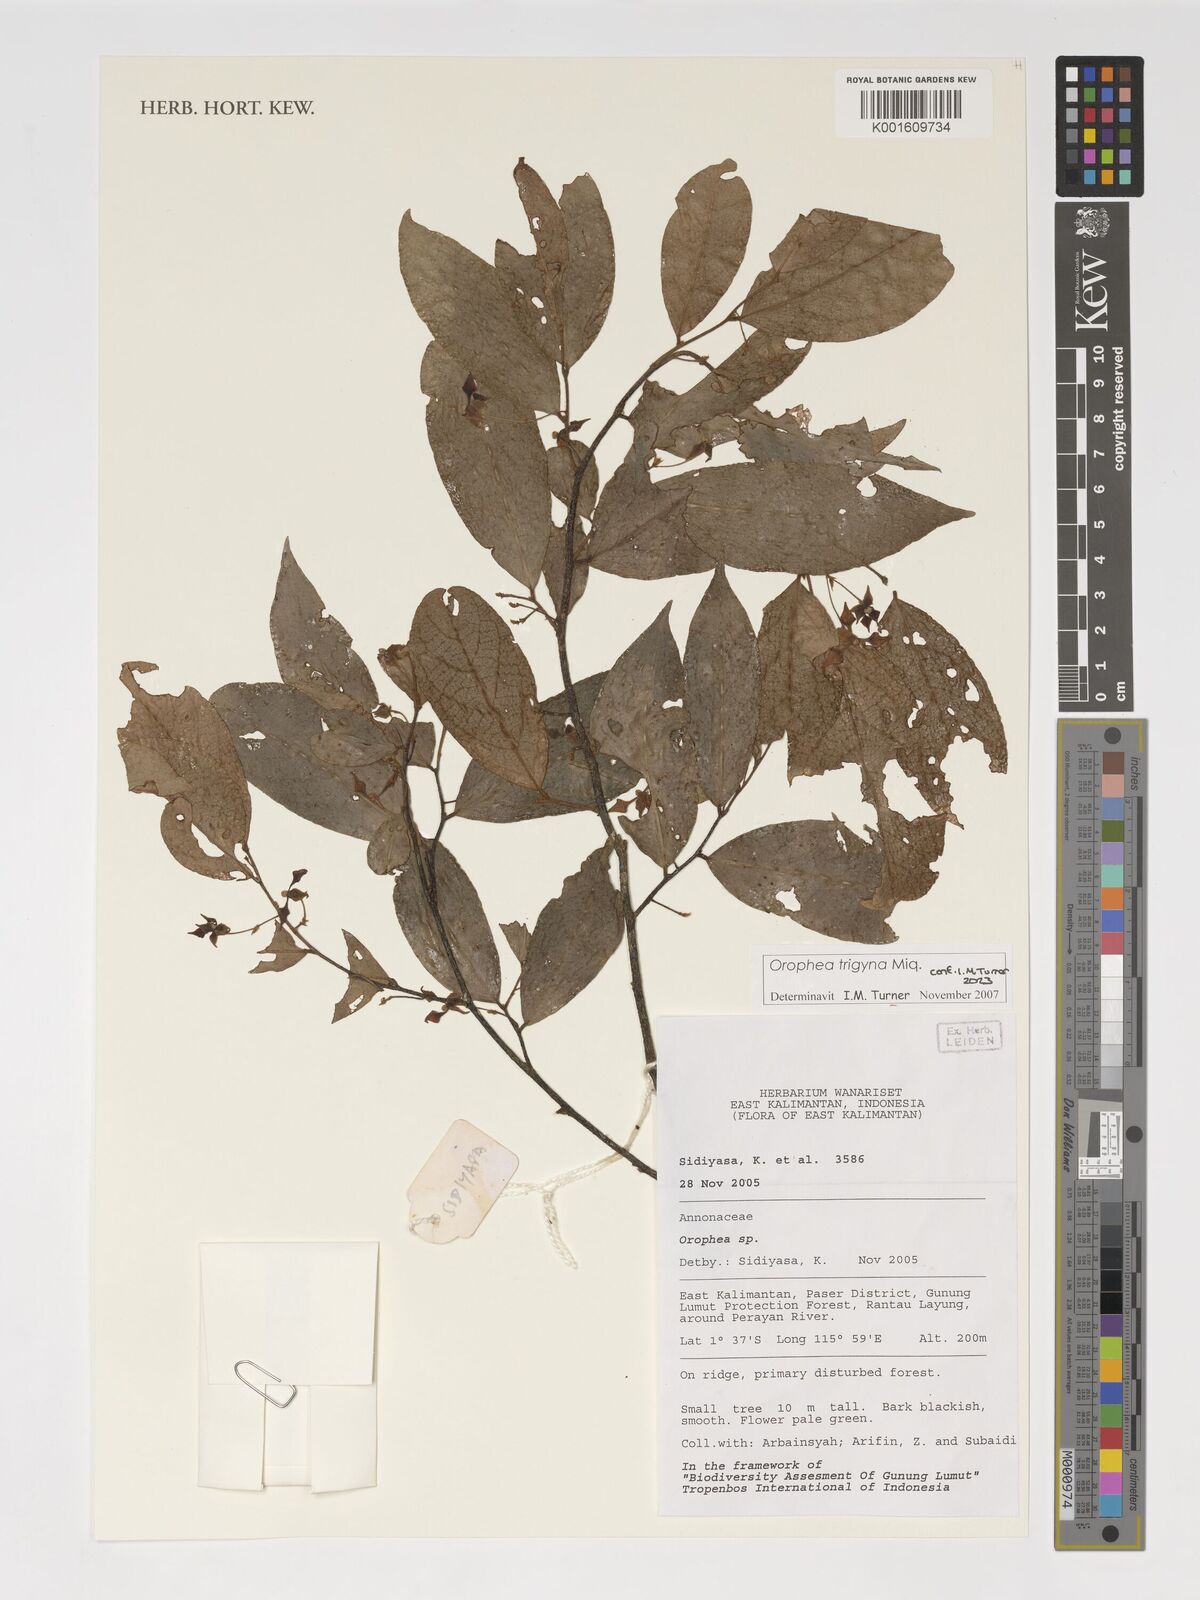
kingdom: Plantae
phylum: Tracheophyta
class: Magnoliopsida
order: Magnoliales
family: Annonaceae
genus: Orophea
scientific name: Orophea trigyna
